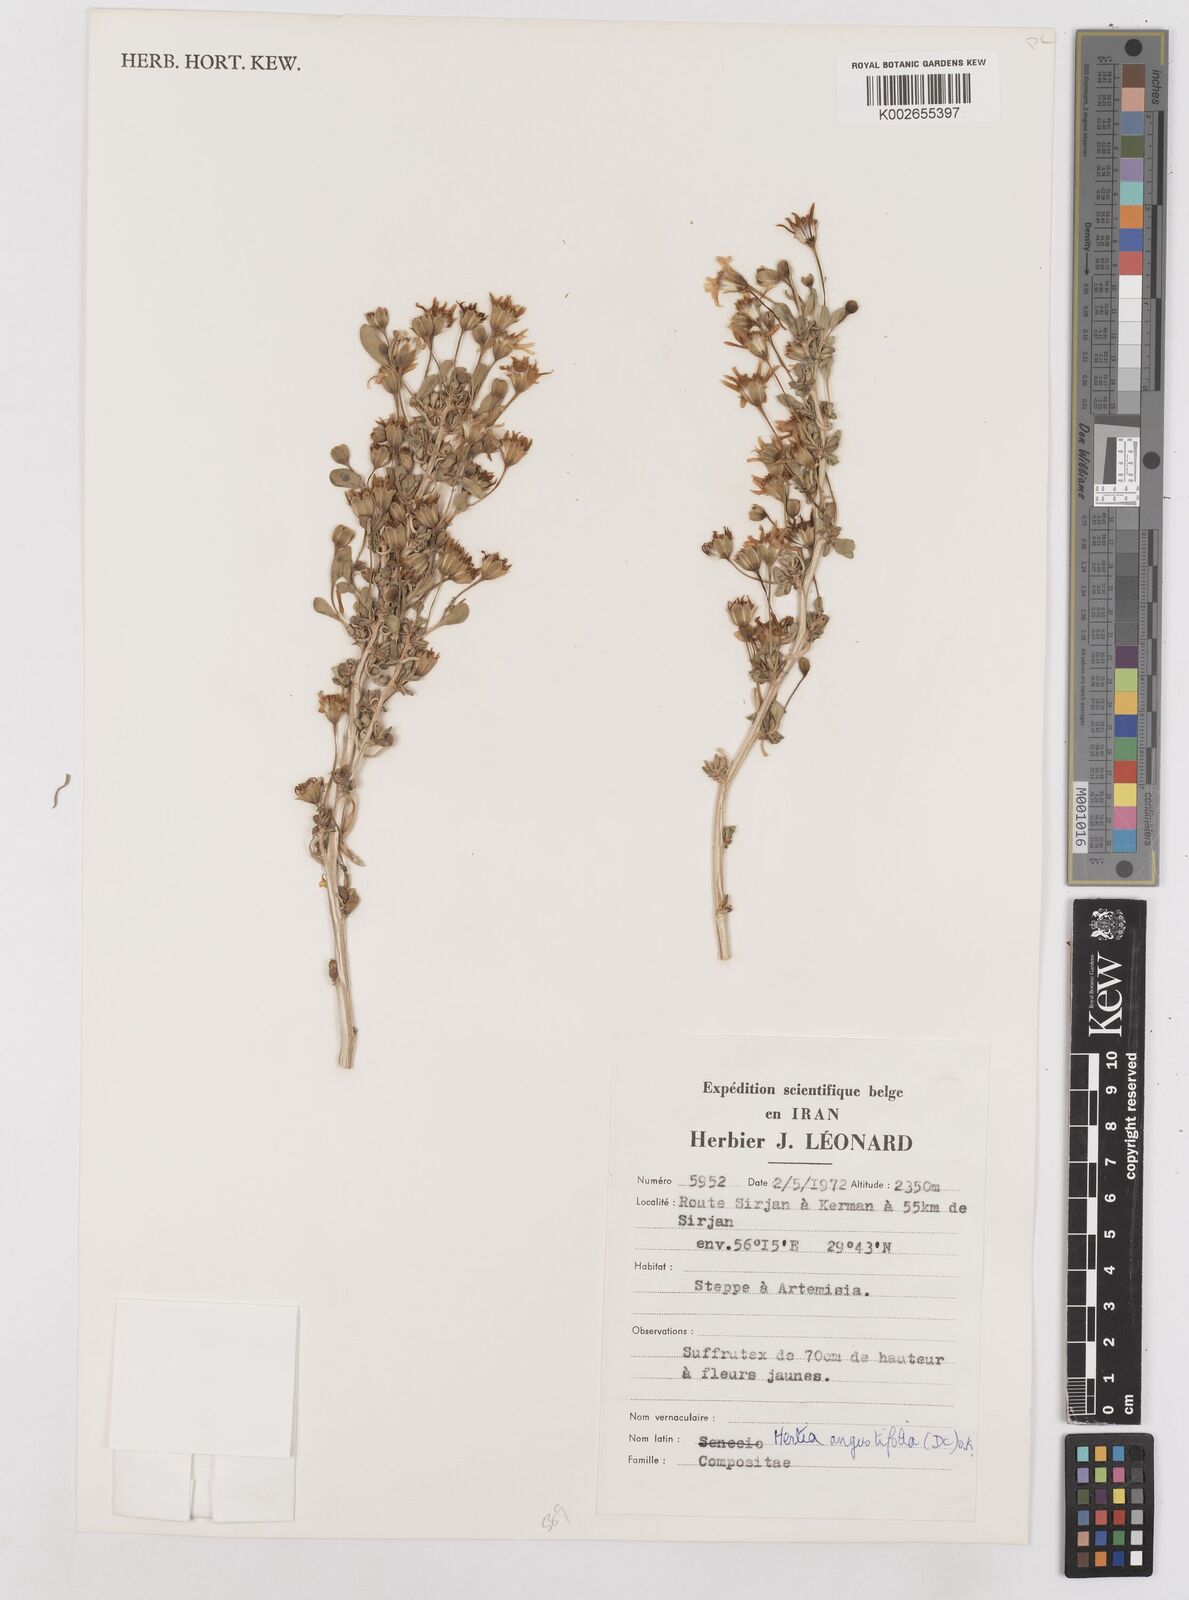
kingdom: Plantae
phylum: Tracheophyta
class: Magnoliopsida
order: Asterales
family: Asteraceae
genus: Hertia
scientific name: Hertia angustifolia
